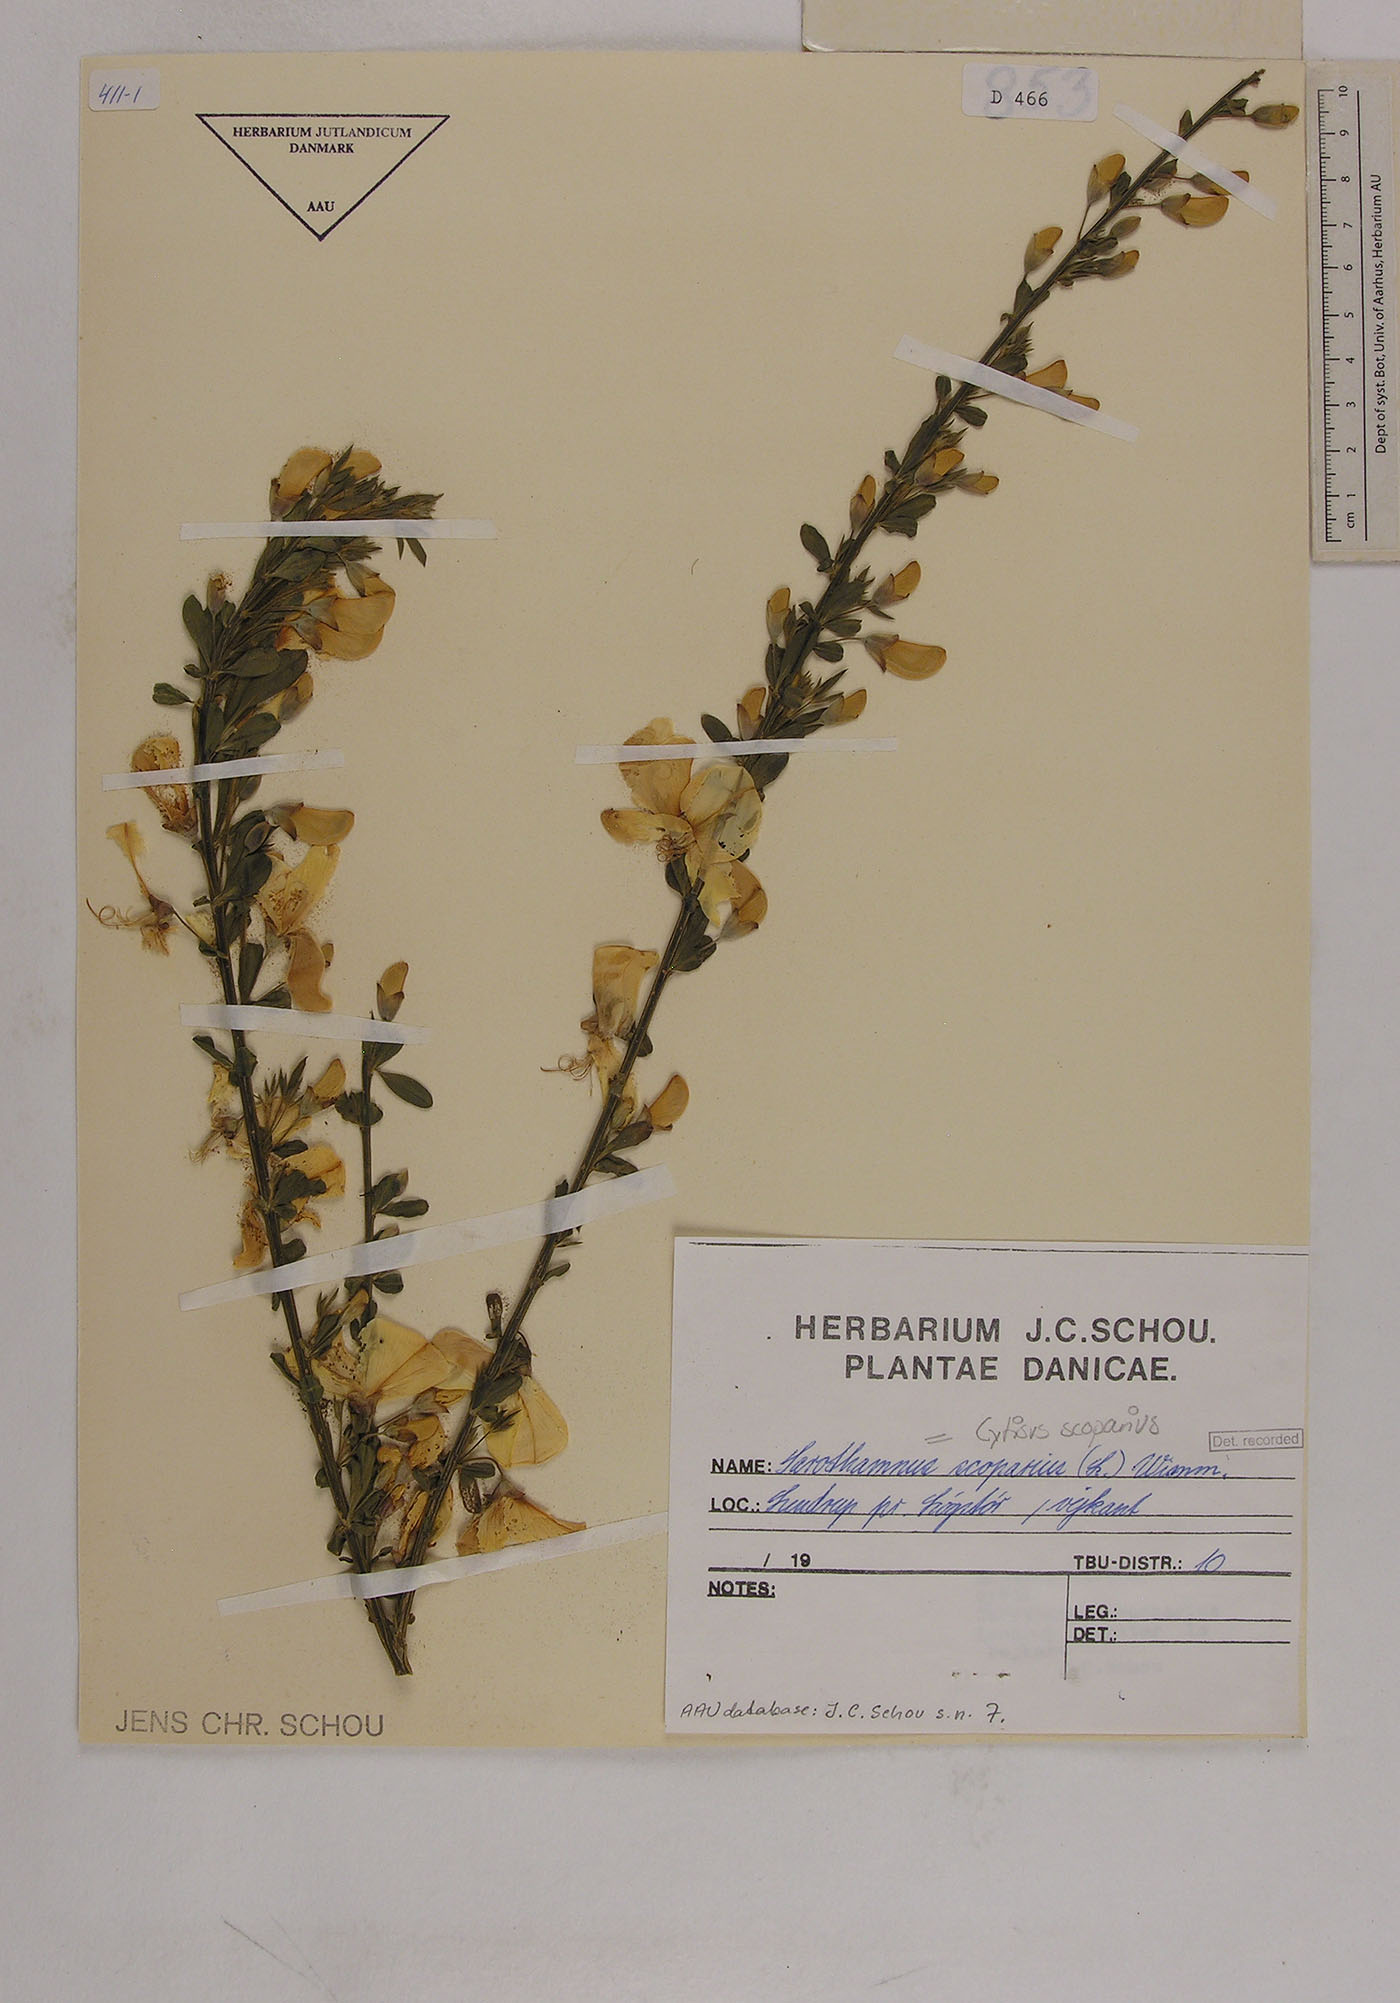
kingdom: Plantae
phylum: Tracheophyta
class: Magnoliopsida
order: Fabales
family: Fabaceae
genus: Cytisus
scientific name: Cytisus scoparius
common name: Scotch broom
